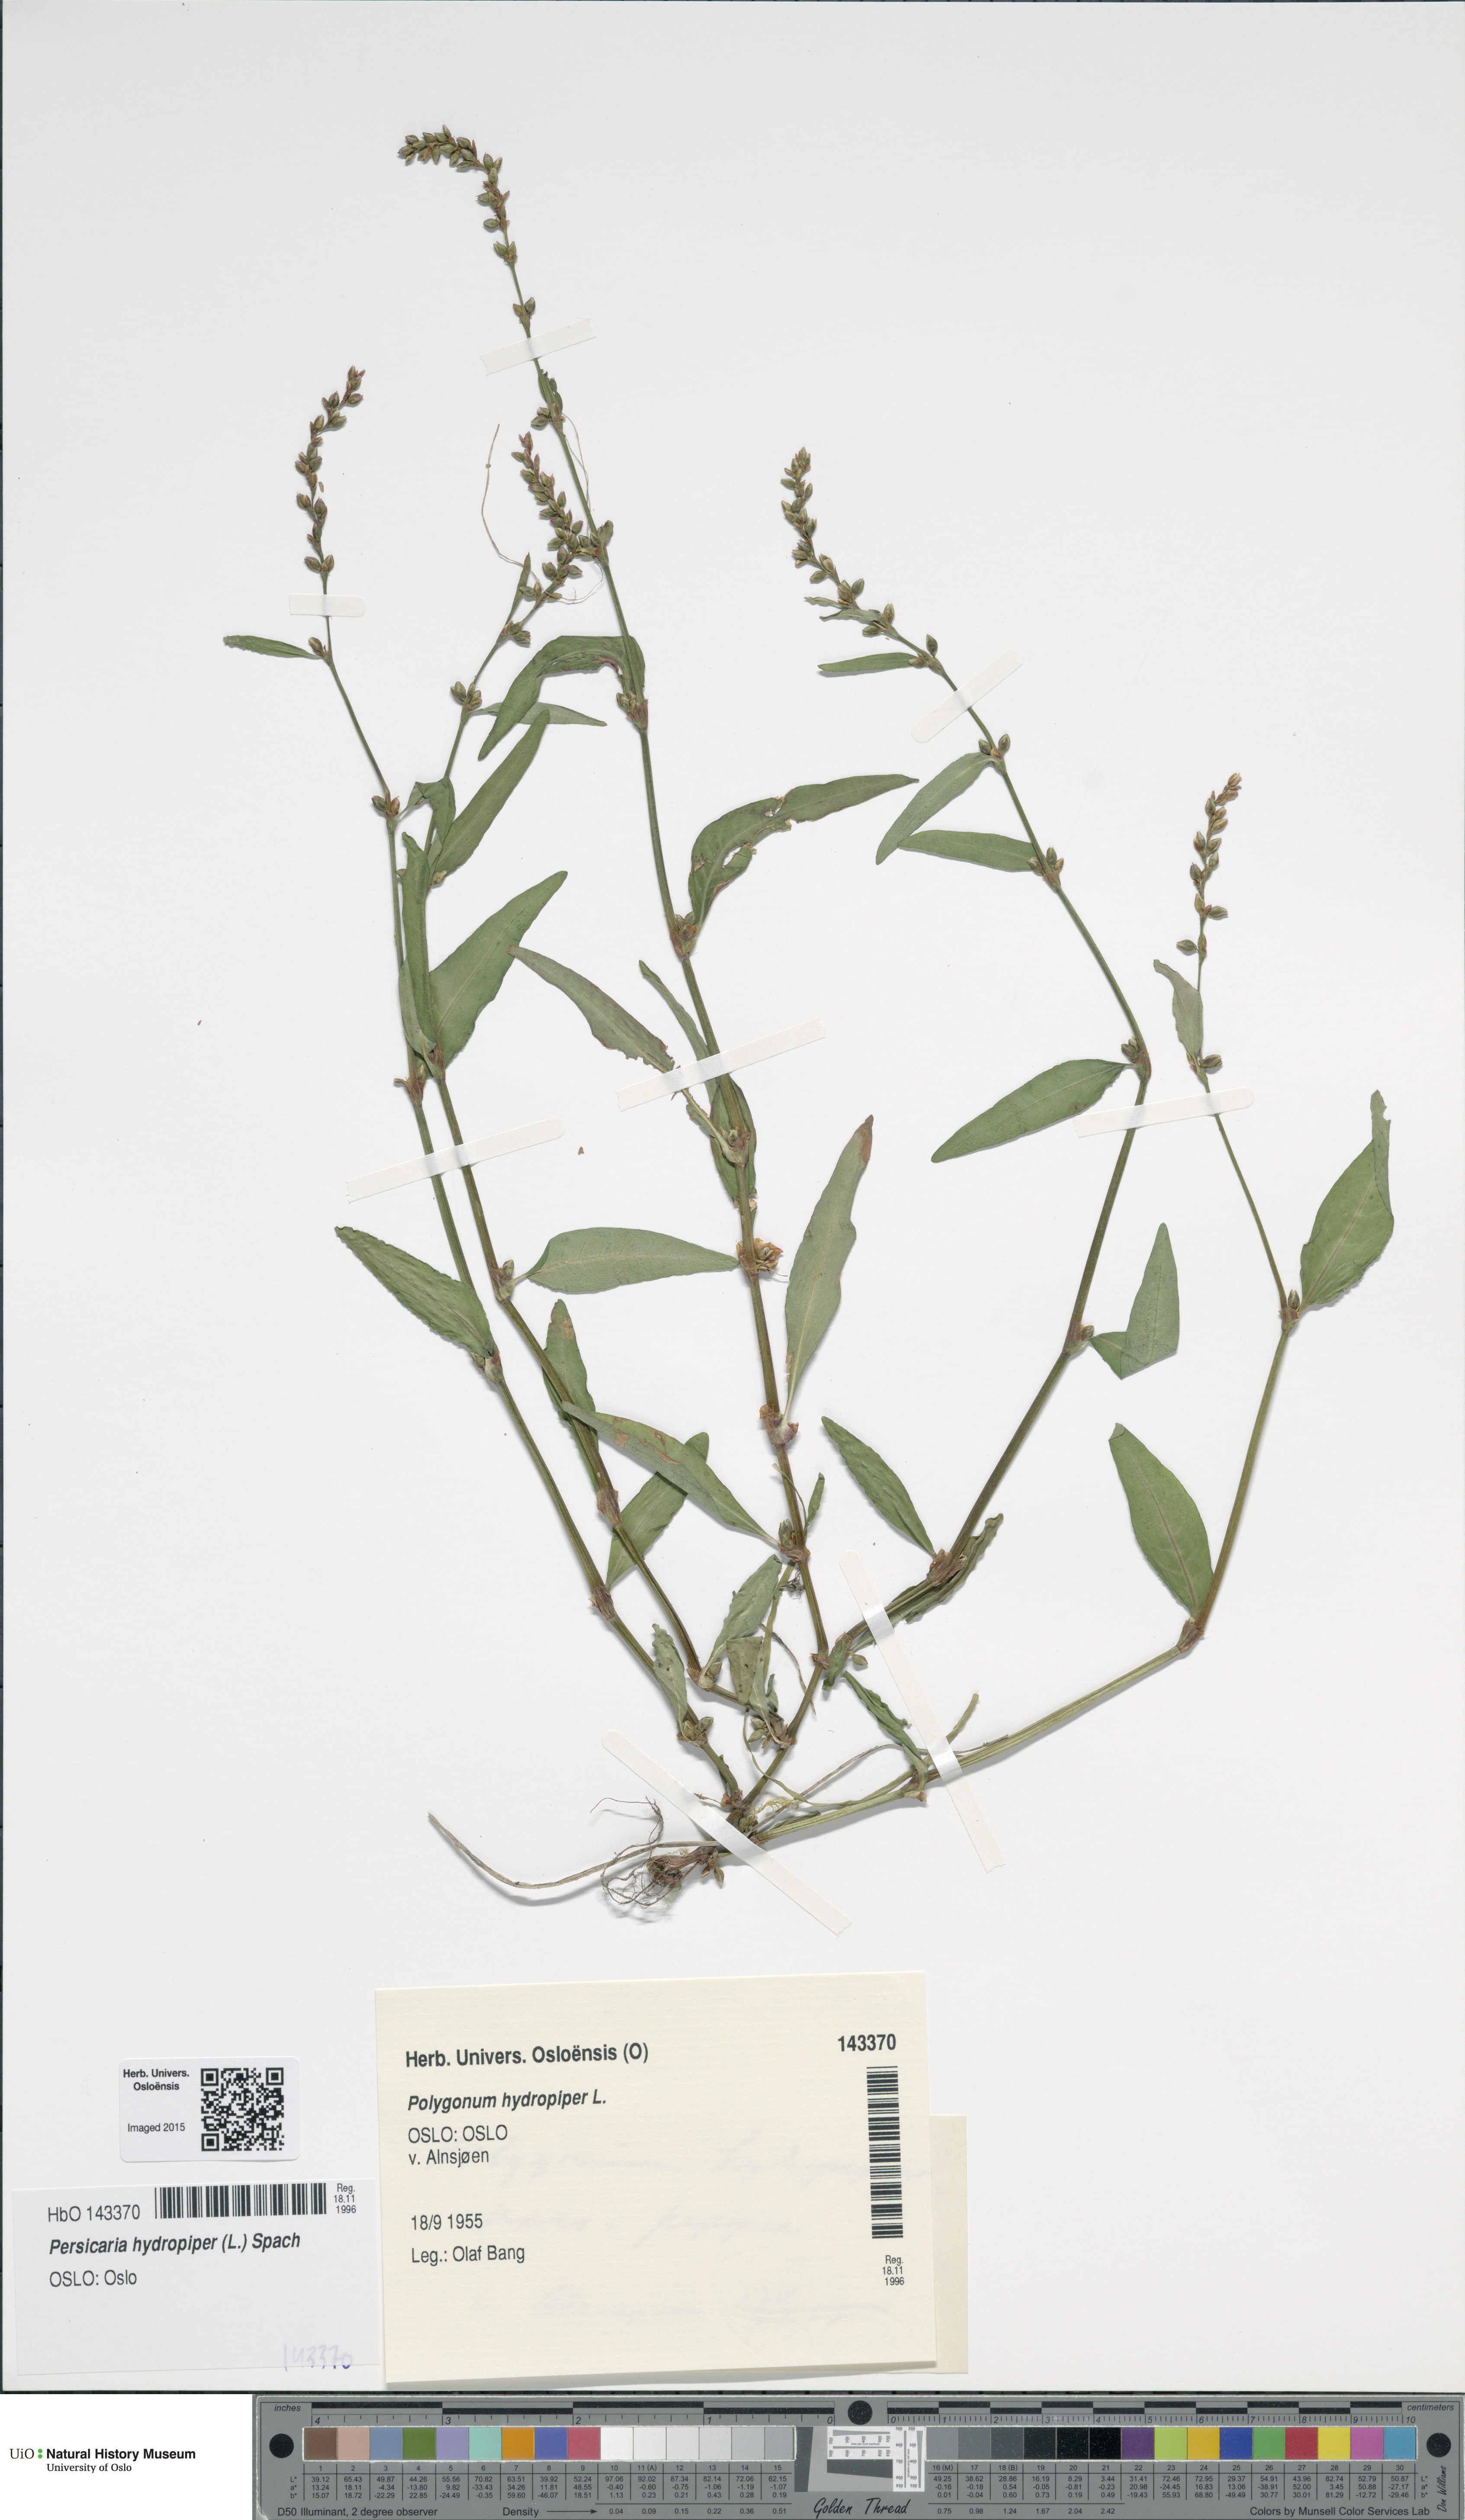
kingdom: Plantae
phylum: Tracheophyta
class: Magnoliopsida
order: Caryophyllales
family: Polygonaceae
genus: Persicaria
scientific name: Persicaria hydropiper
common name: Water-pepper
